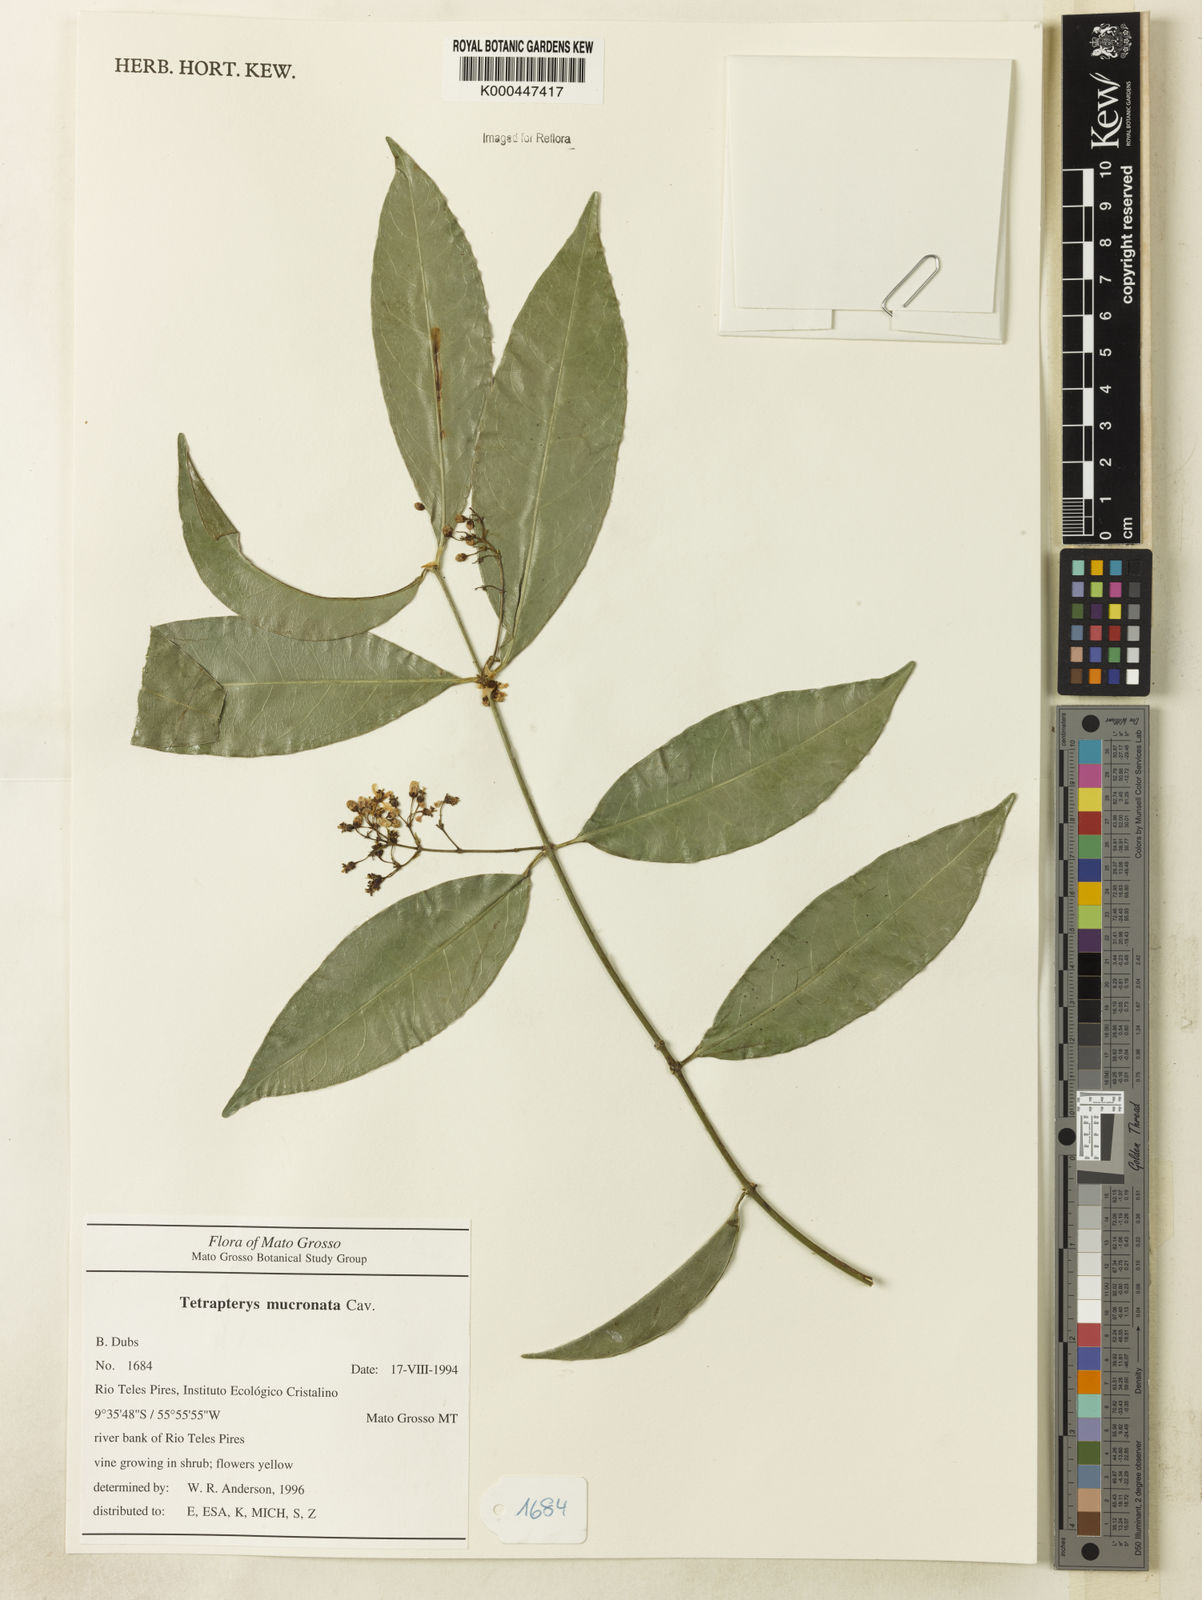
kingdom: Plantae
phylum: Tracheophyta
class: Magnoliopsida
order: Malpighiales
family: Malpighiaceae
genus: Tetrapterys
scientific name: Tetrapterys mucronata
